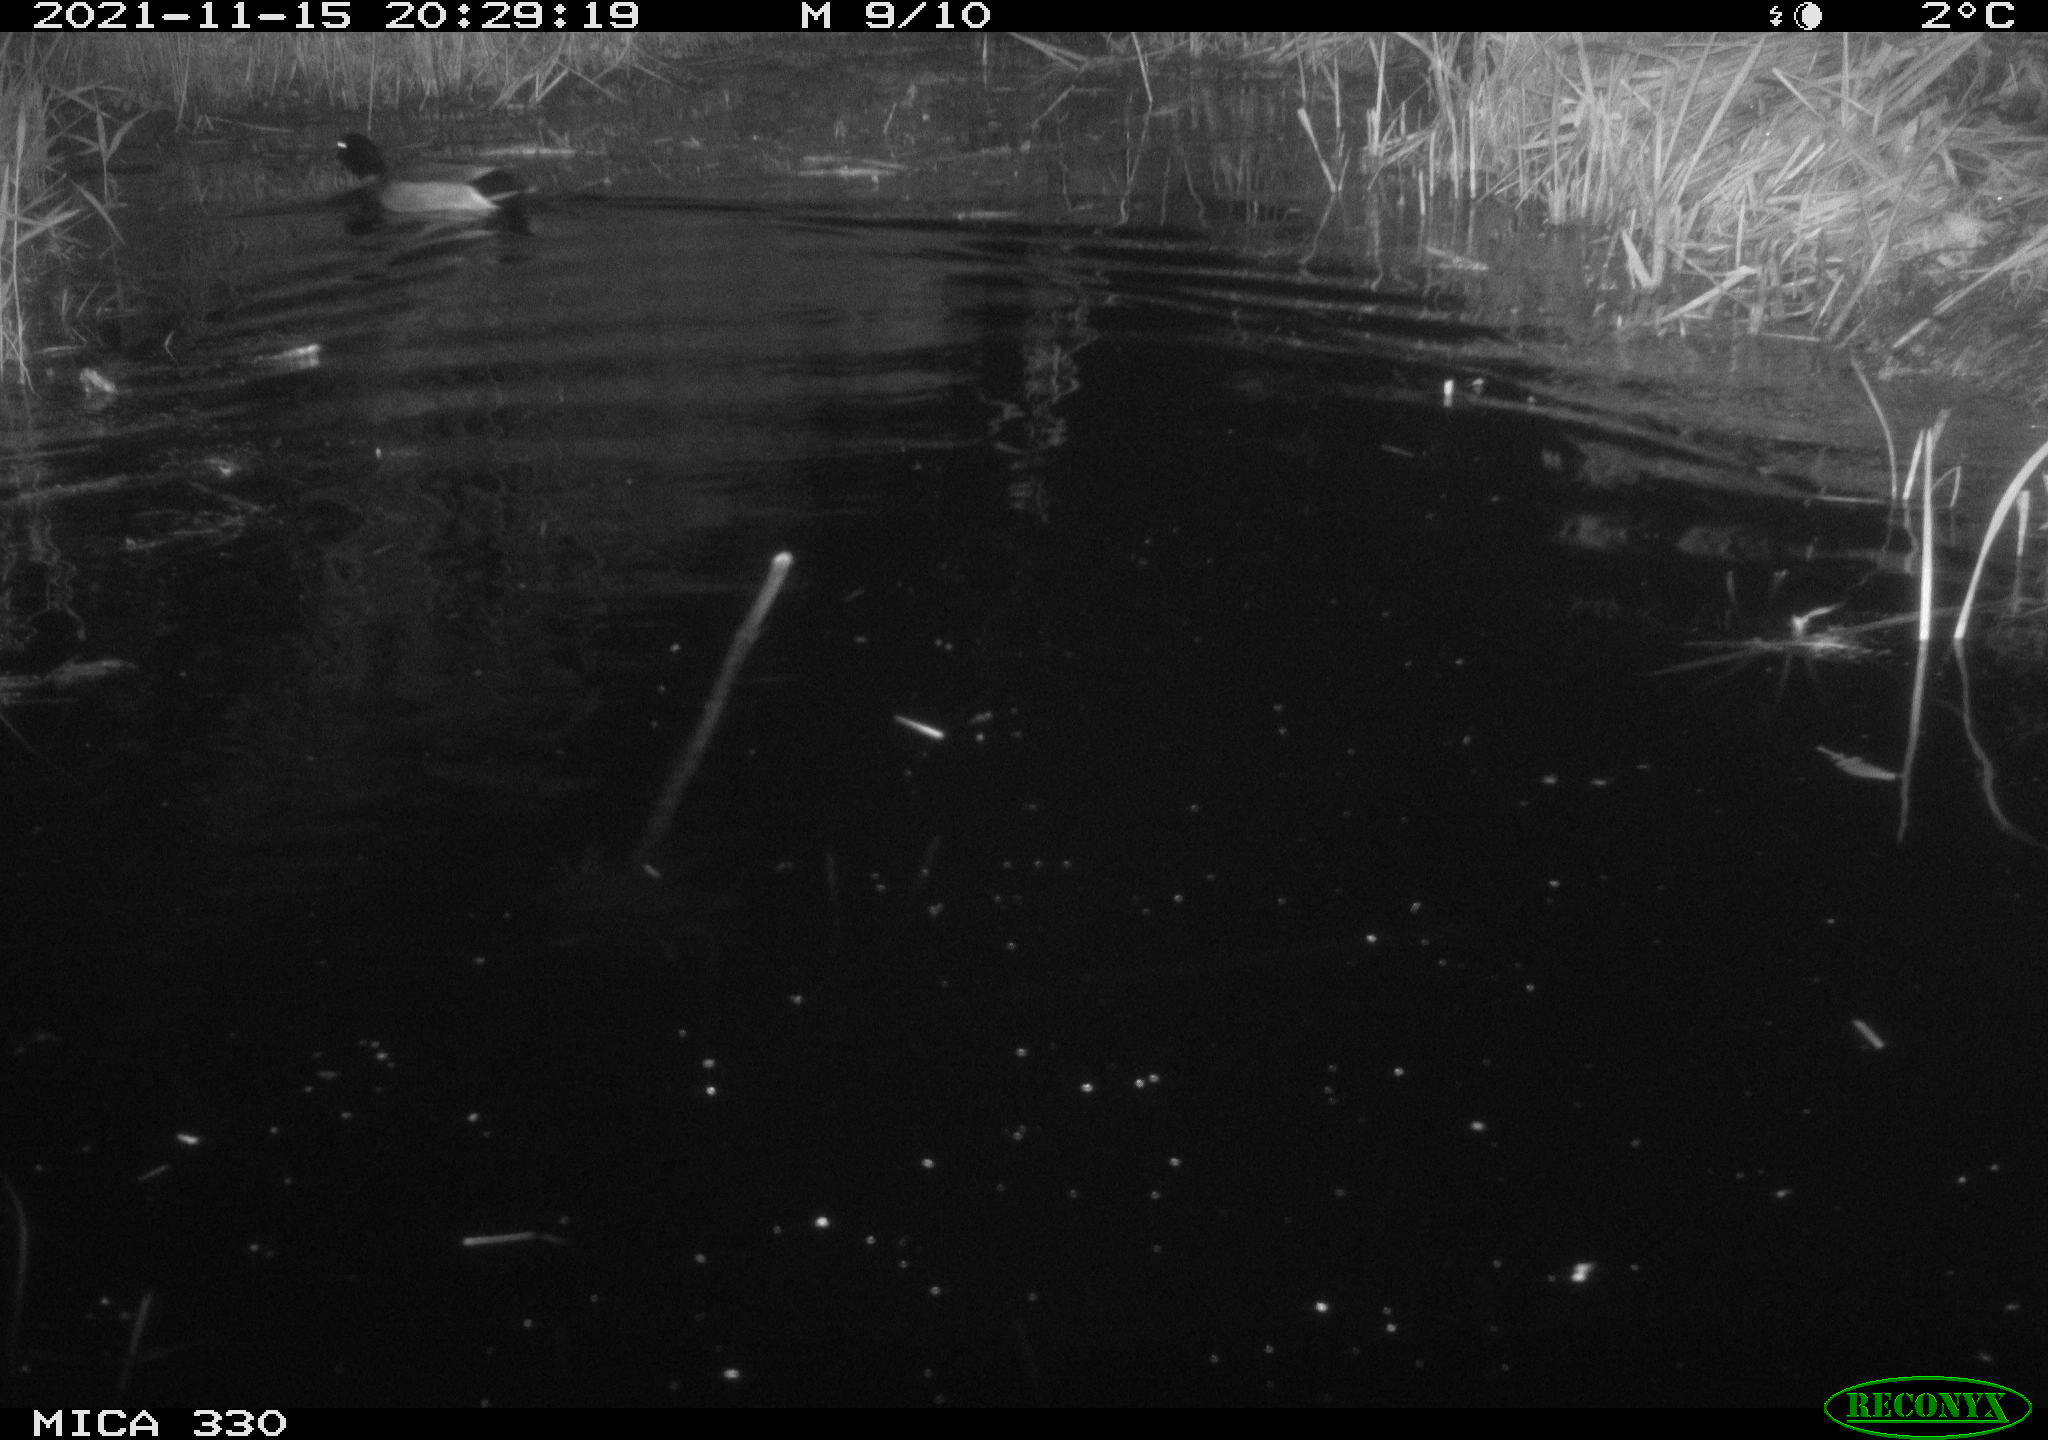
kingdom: Animalia
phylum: Chordata
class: Aves
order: Anseriformes
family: Anatidae
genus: Anas
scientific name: Anas platyrhynchos
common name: Mallard
